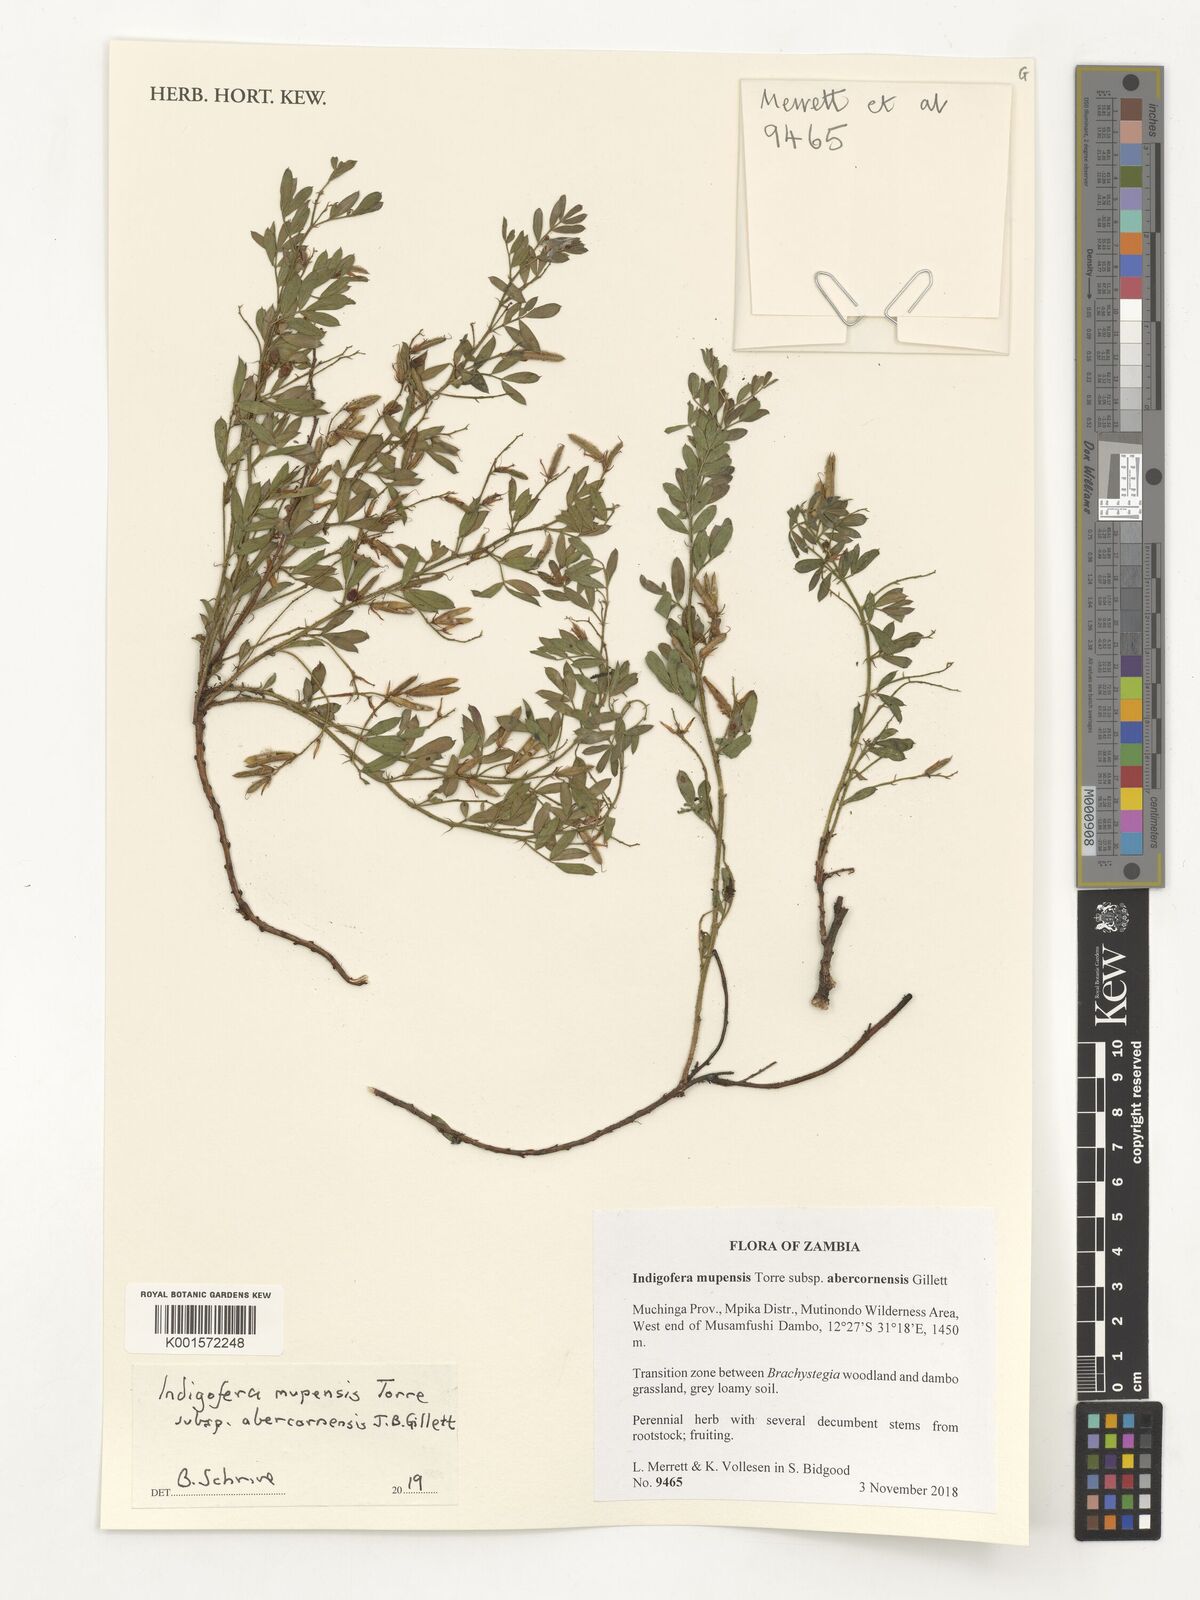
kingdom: Plantae
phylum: Tracheophyta
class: Magnoliopsida
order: Fabales
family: Fabaceae
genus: Indigofera
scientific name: Indigofera mupensis
